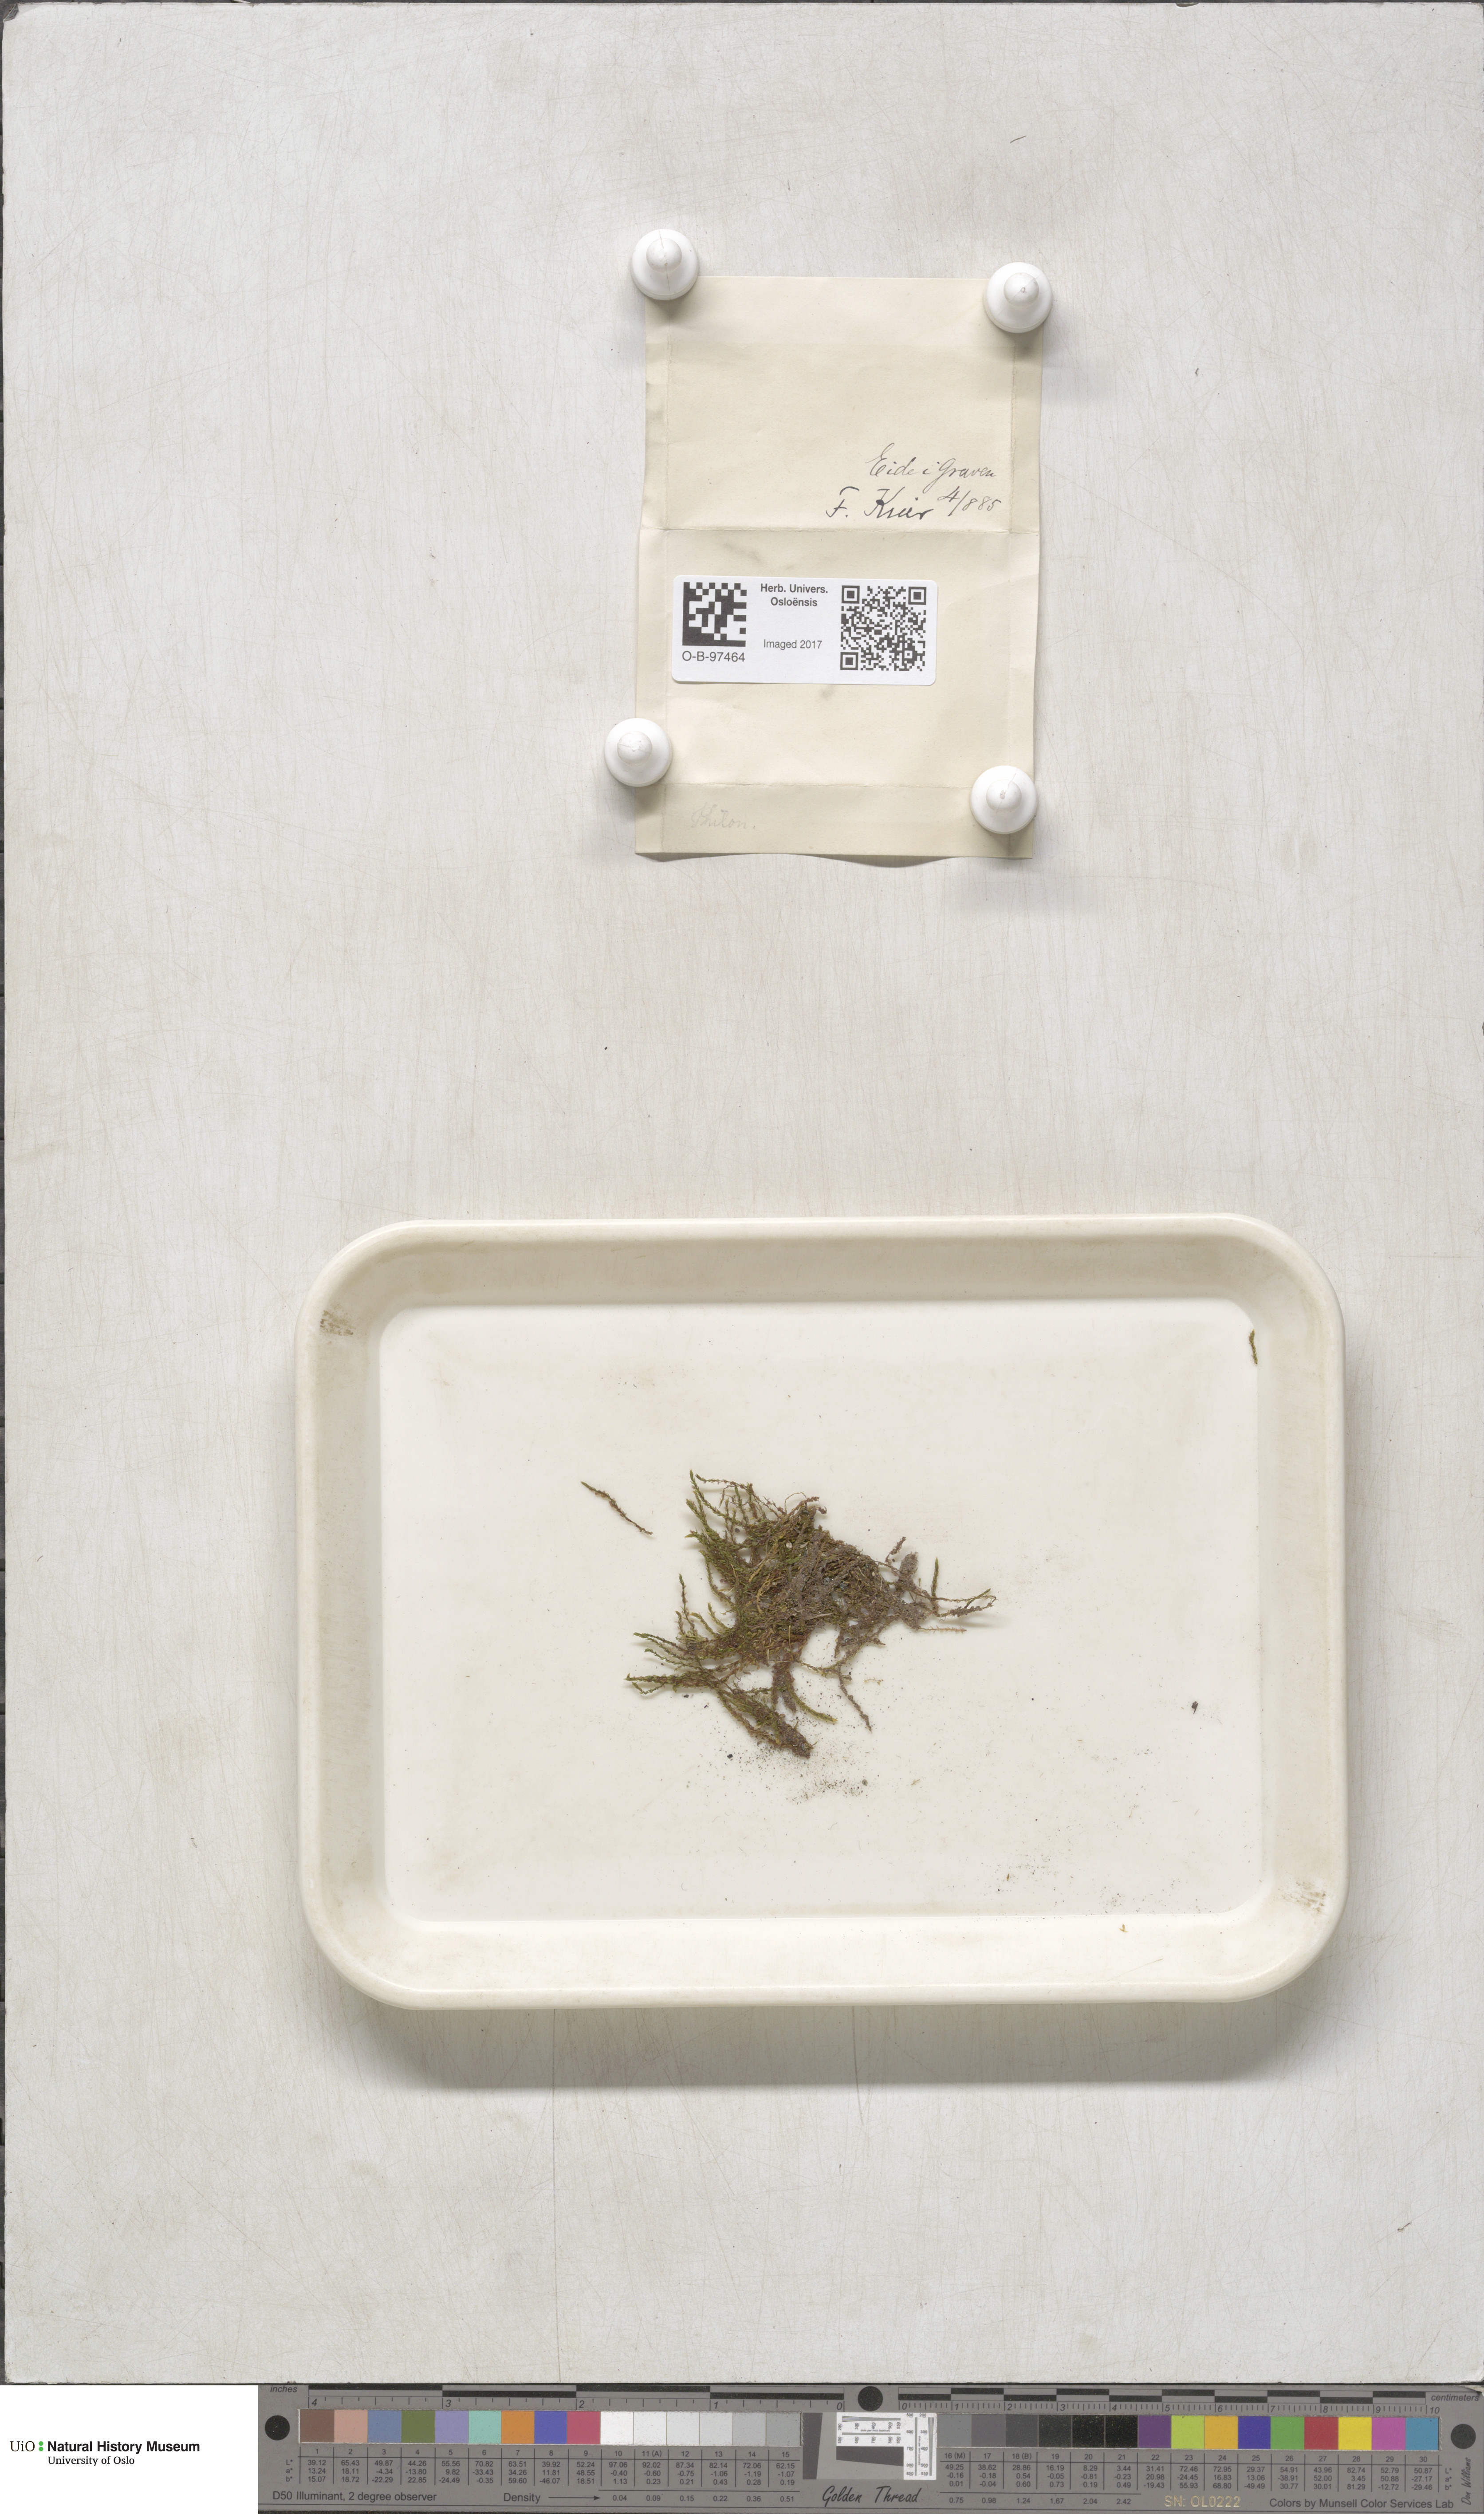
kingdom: Plantae
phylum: Bryophyta
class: Bryopsida
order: Bartramiales
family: Bartramiaceae
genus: Philonotis
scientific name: Philonotis
